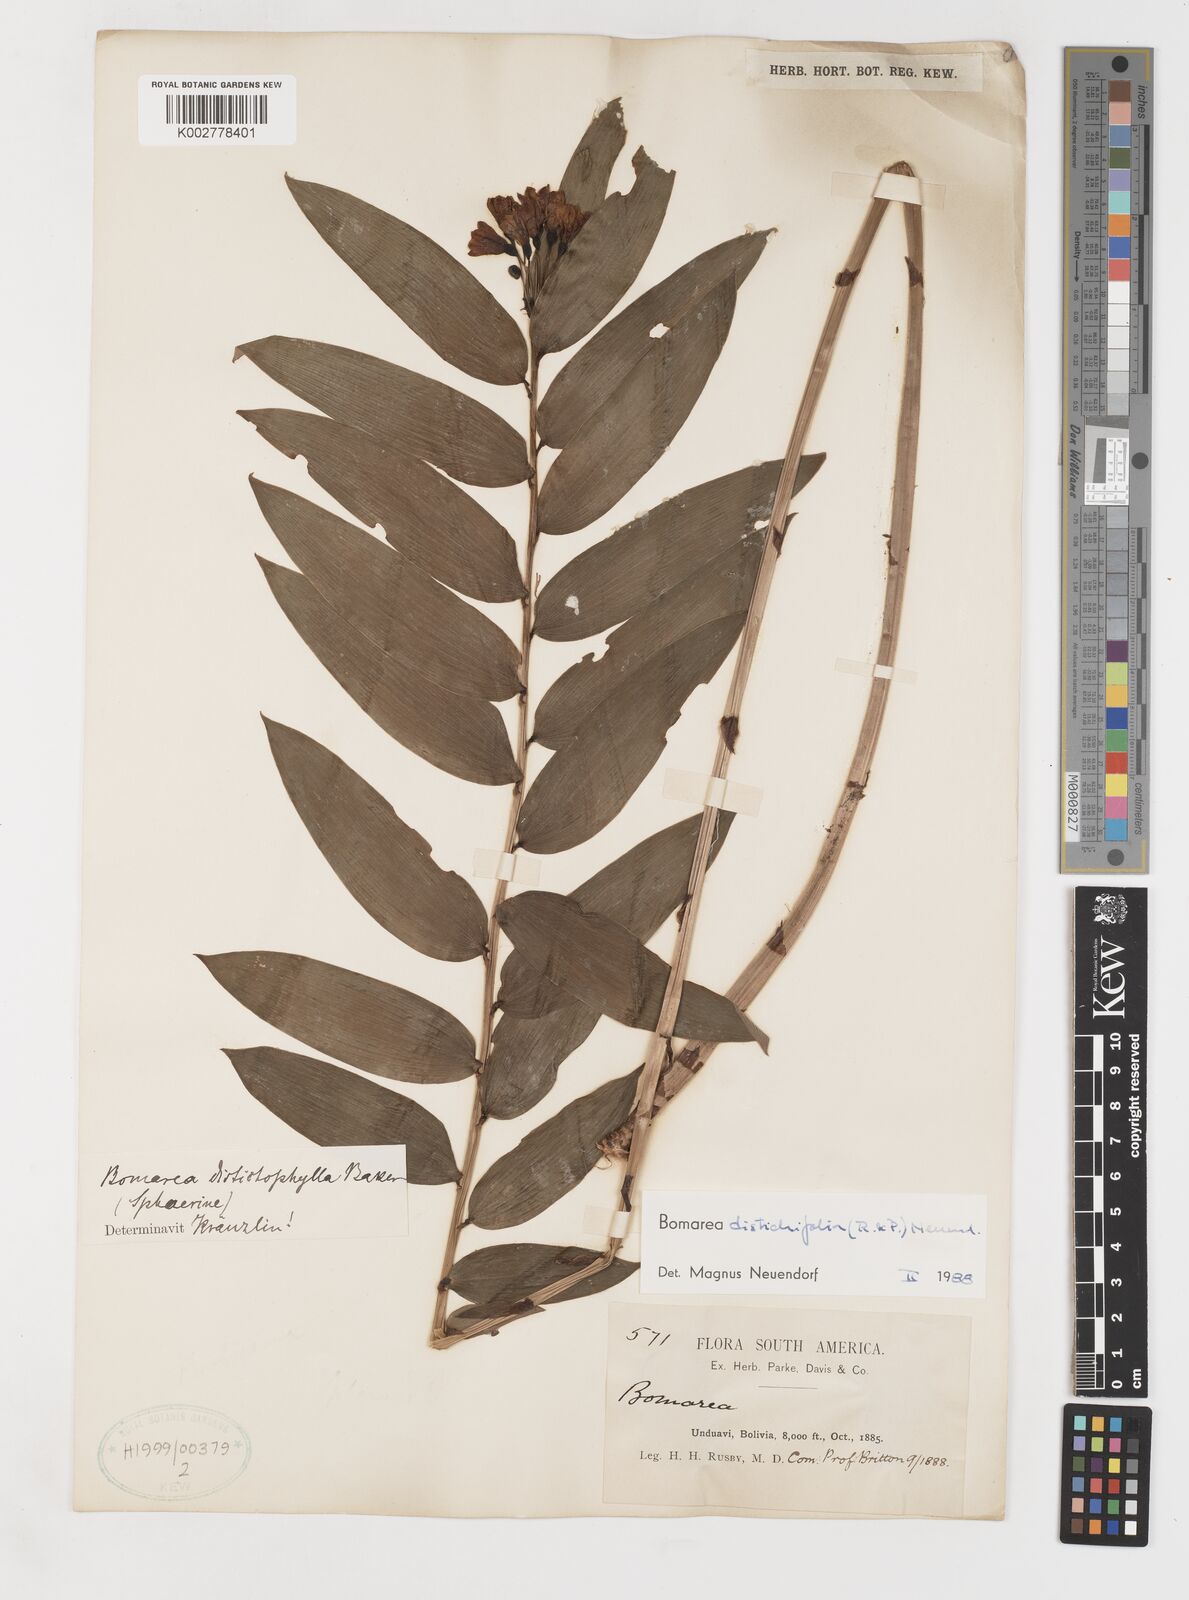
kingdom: Plantae
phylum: Tracheophyta
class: Liliopsida
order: Liliales
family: Alstroemeriaceae
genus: Bomarea
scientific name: Bomarea distichifolia
